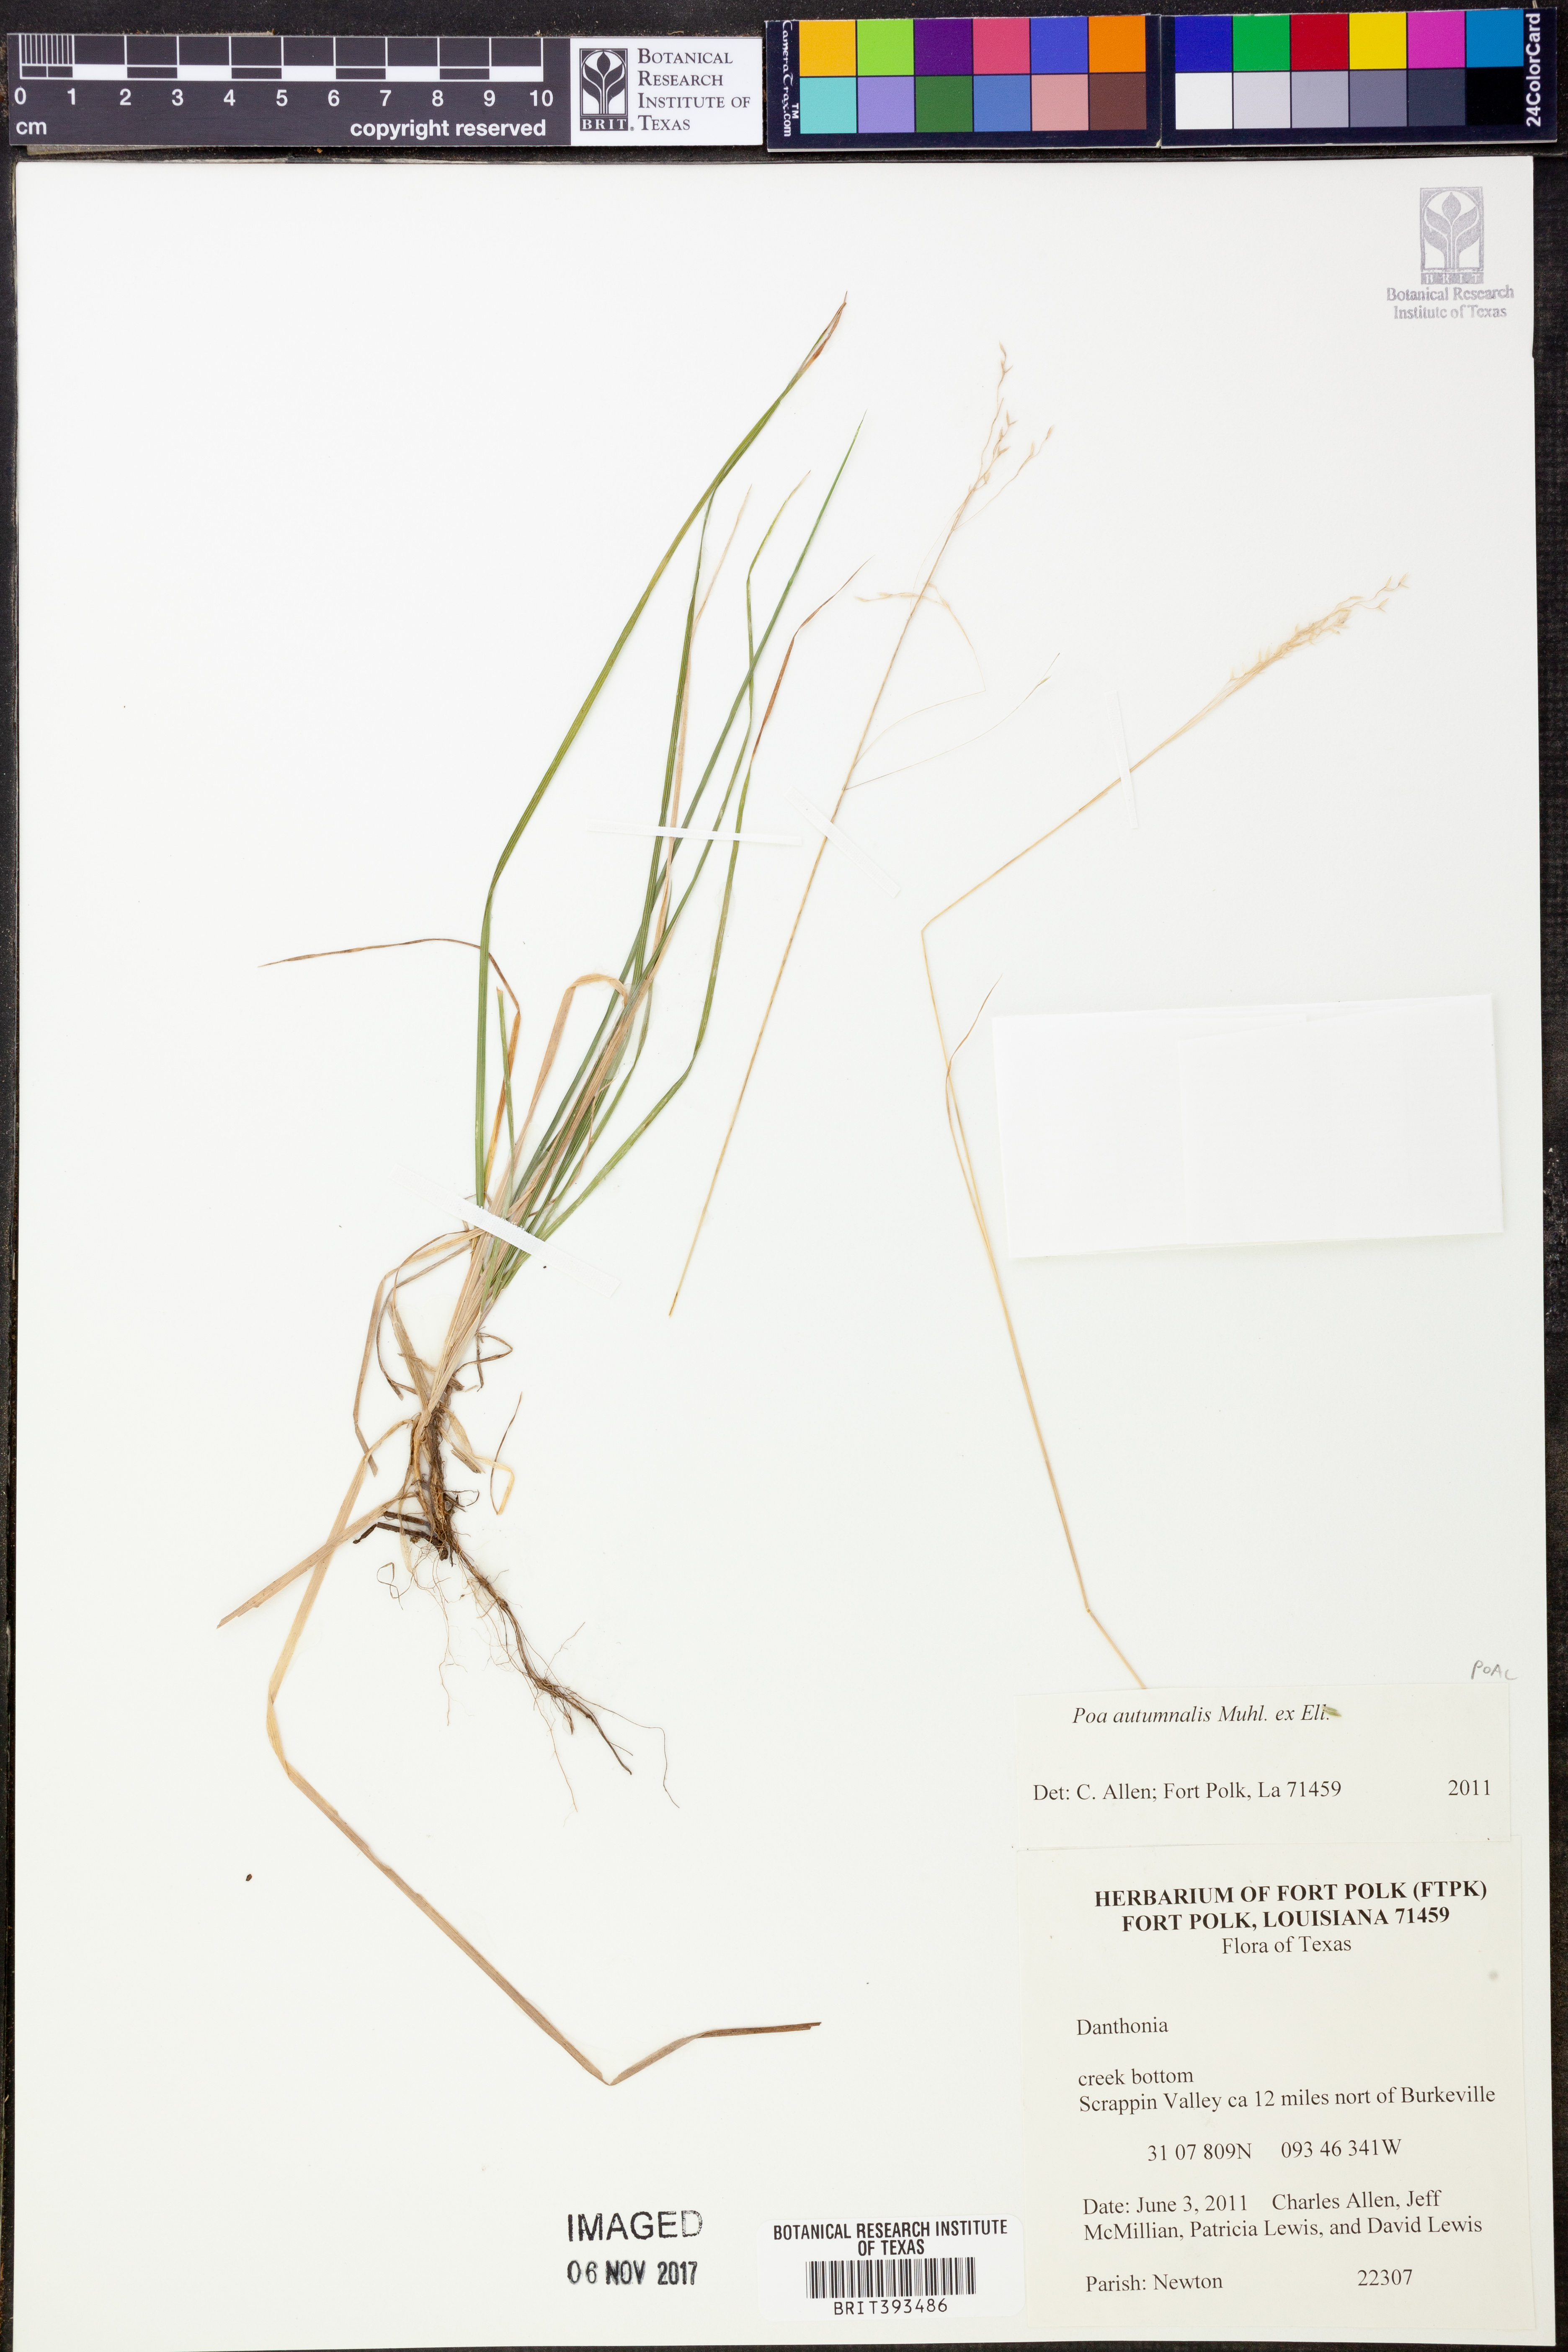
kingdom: Plantae
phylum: Tracheophyta
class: Liliopsida
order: Poales
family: Poaceae
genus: Poa
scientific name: Poa autumnalis
